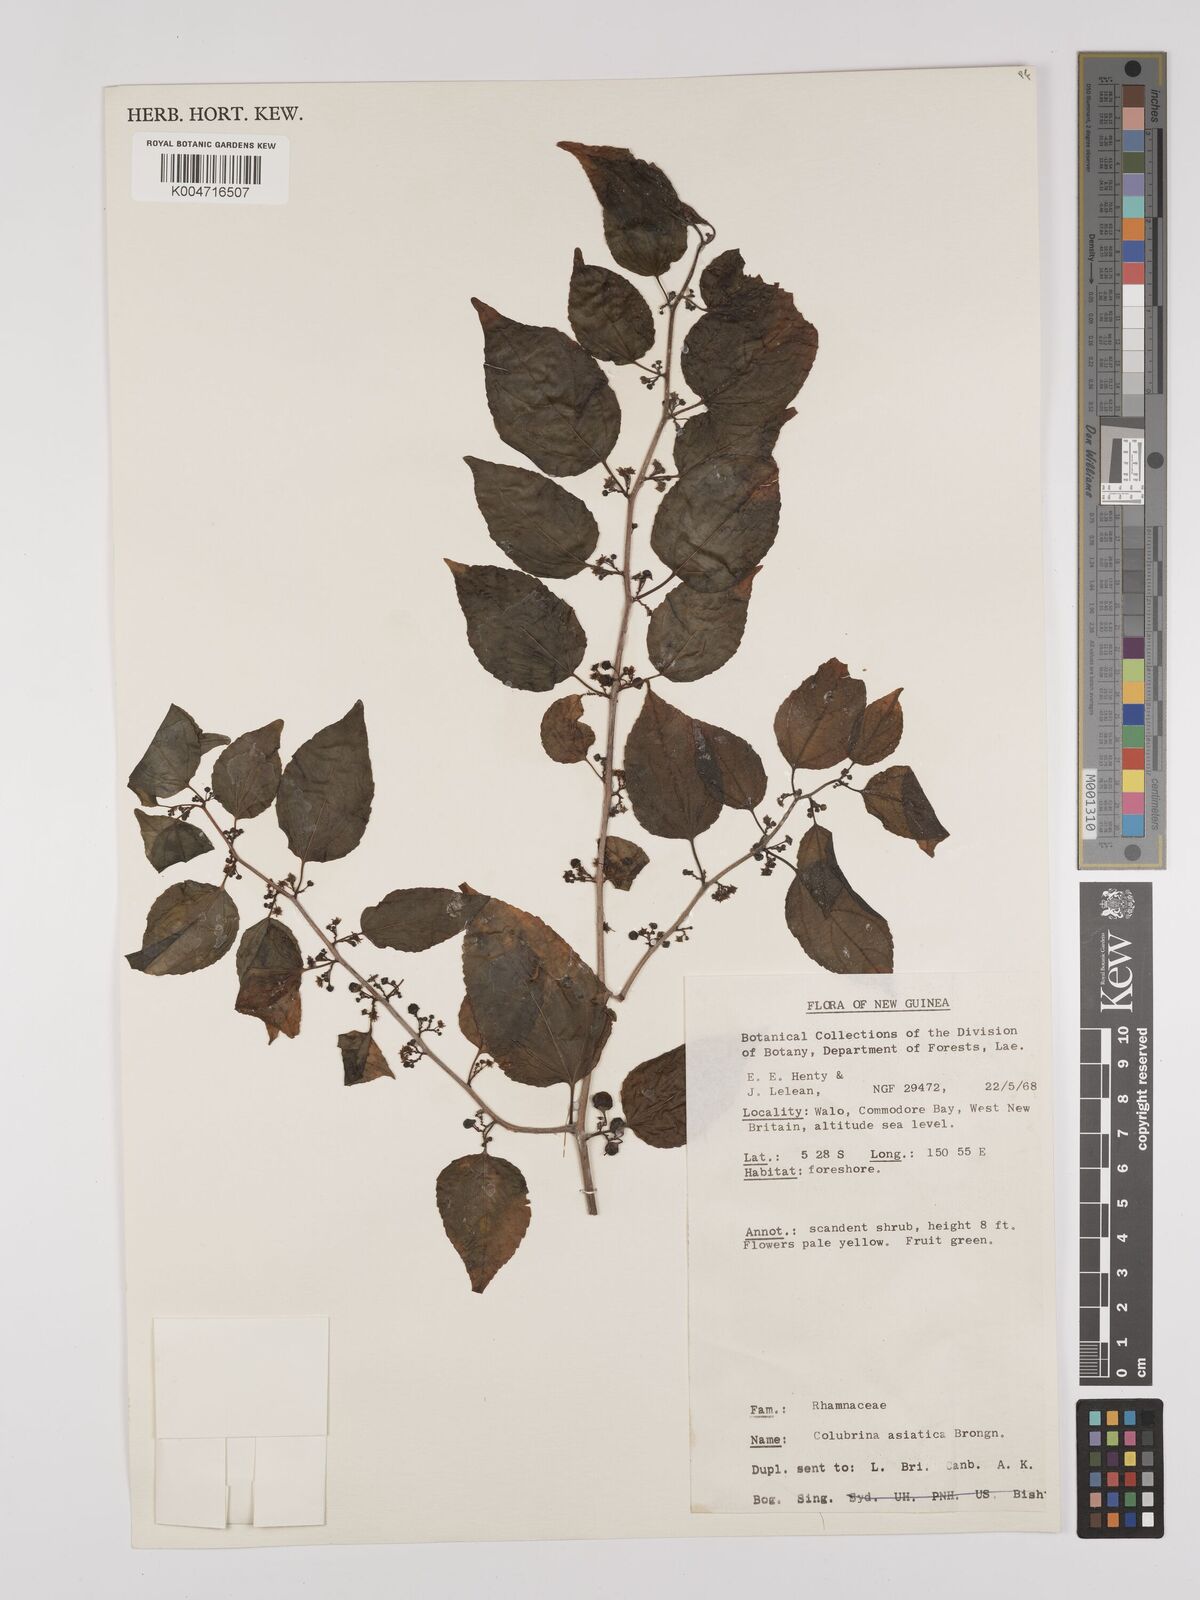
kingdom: Plantae
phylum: Tracheophyta
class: Magnoliopsida
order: Rosales
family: Rhamnaceae
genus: Colubrina
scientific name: Colubrina asiatica
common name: Asian nakedwood
